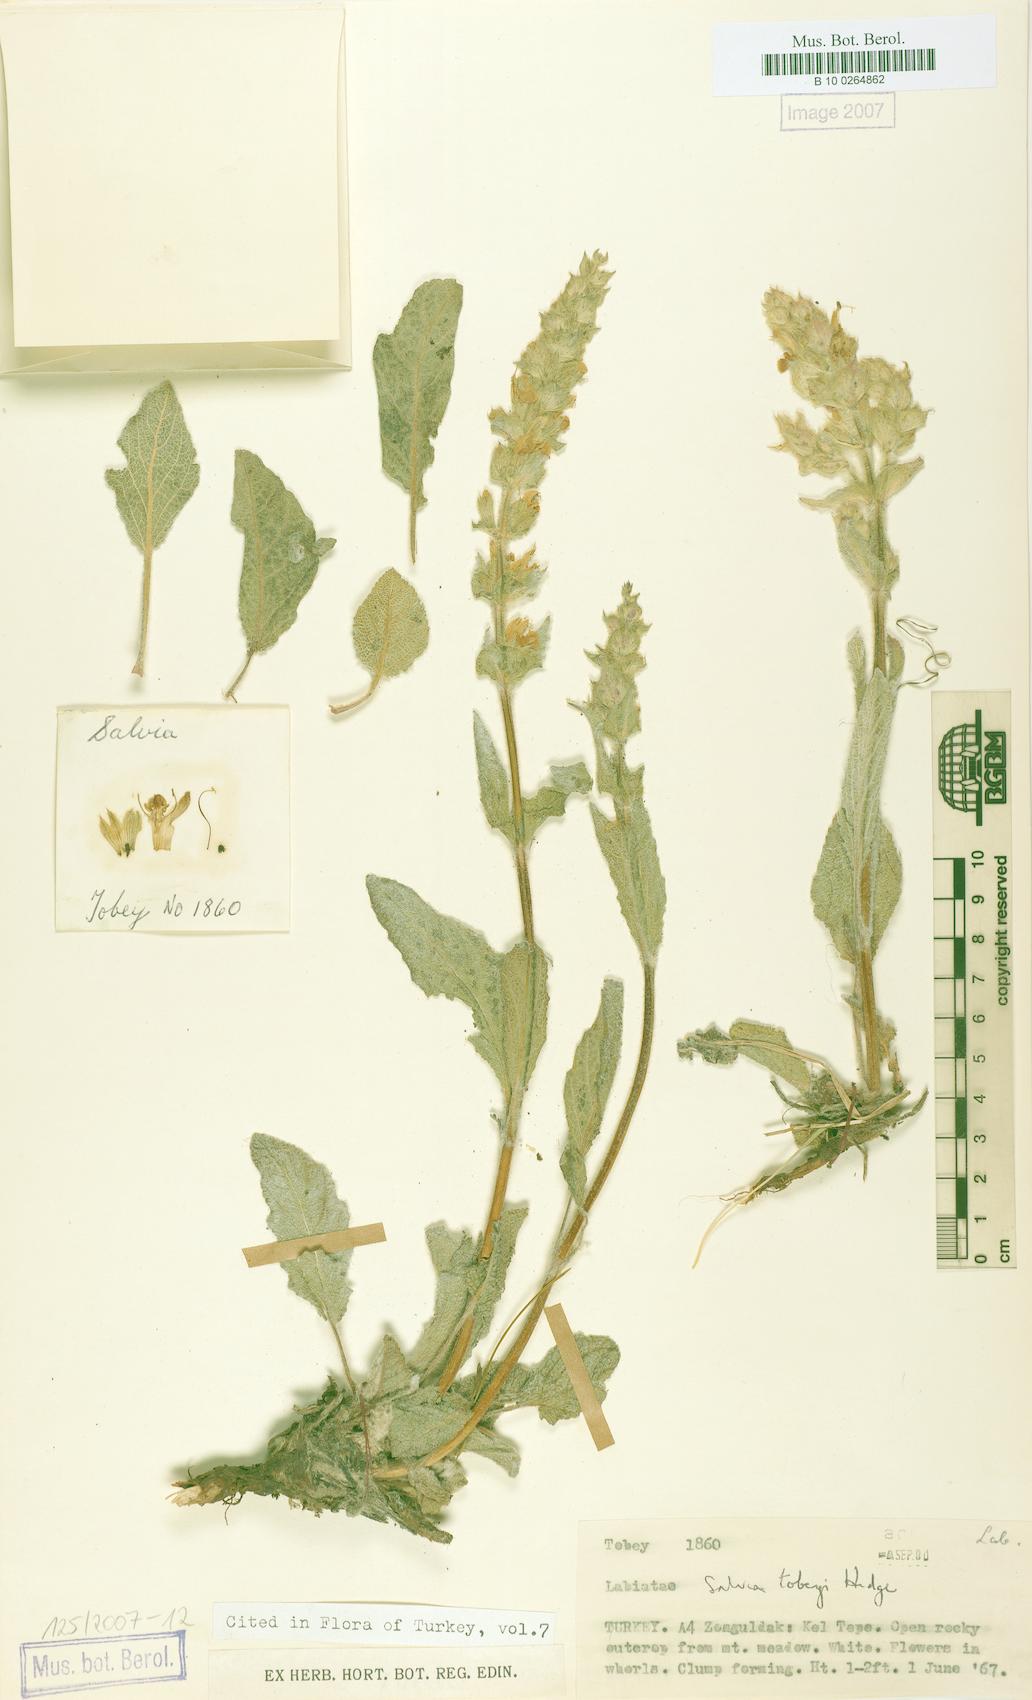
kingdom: Plantae
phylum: Tracheophyta
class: Magnoliopsida
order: Lamiales
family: Lamiaceae
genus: Salvia
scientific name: Salvia tobeyi
